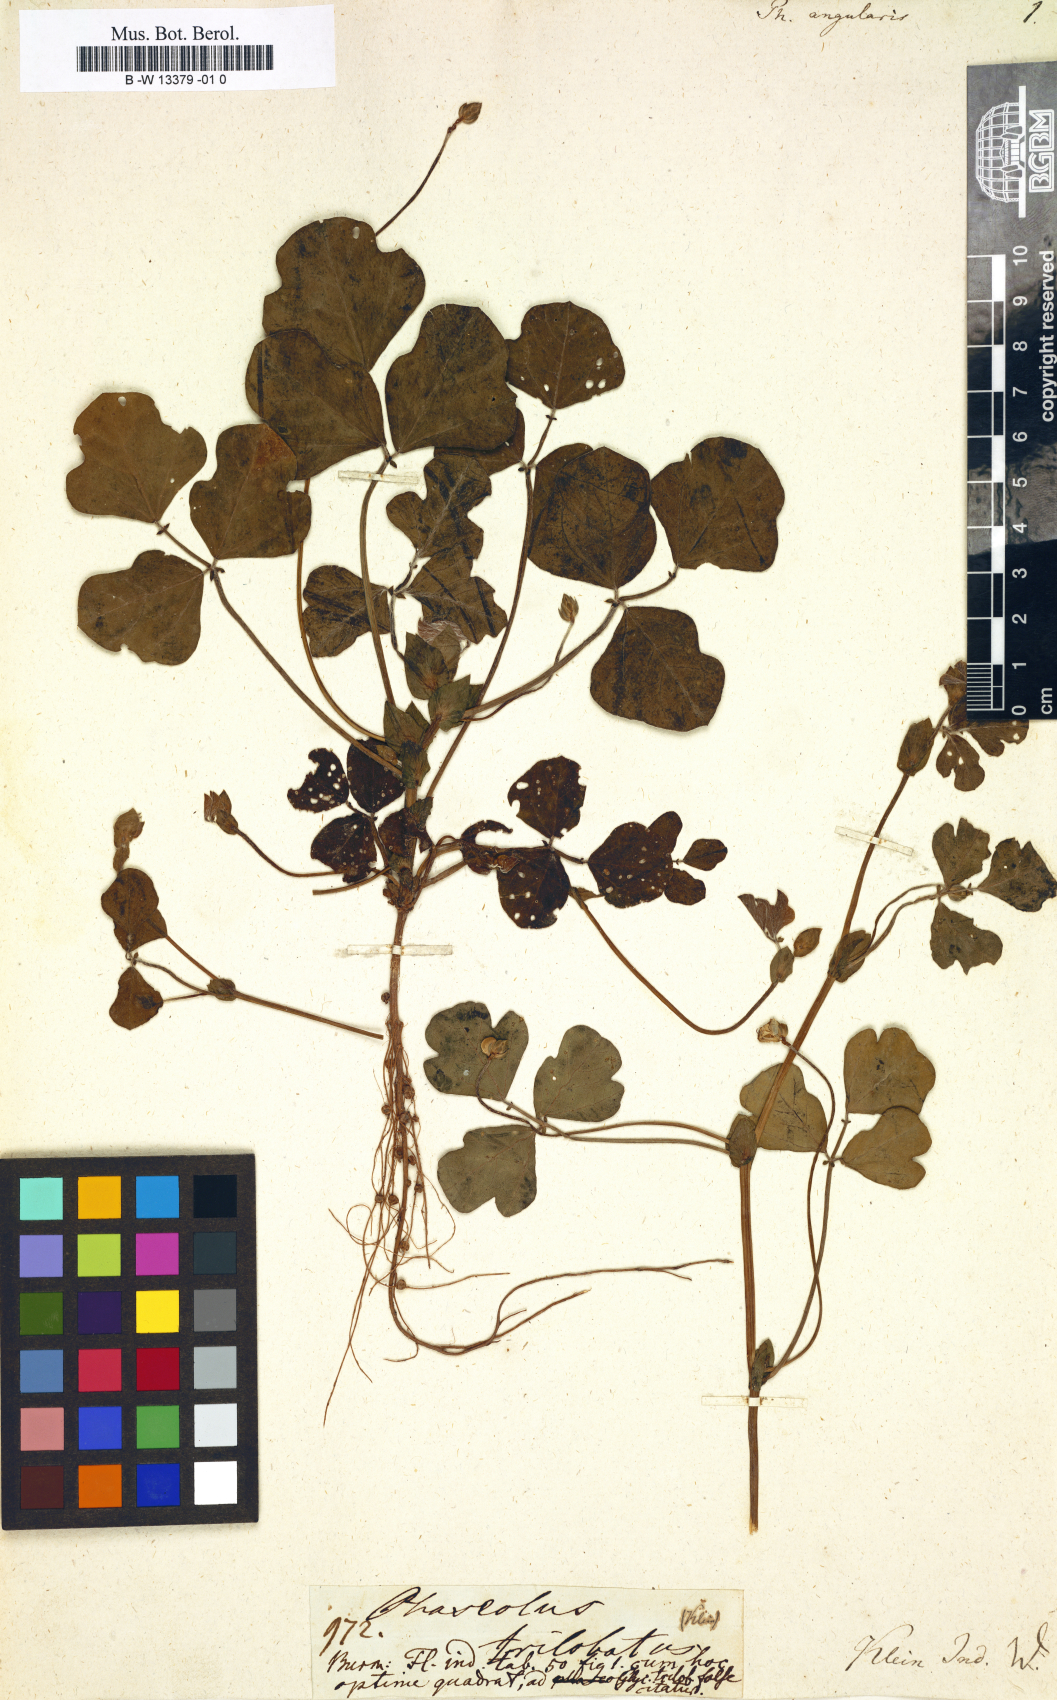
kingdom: Plantae
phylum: Tracheophyta
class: Magnoliopsida
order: Fabales
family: Fabaceae
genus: Vigna
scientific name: Vigna angularis
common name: Adzuki bean
